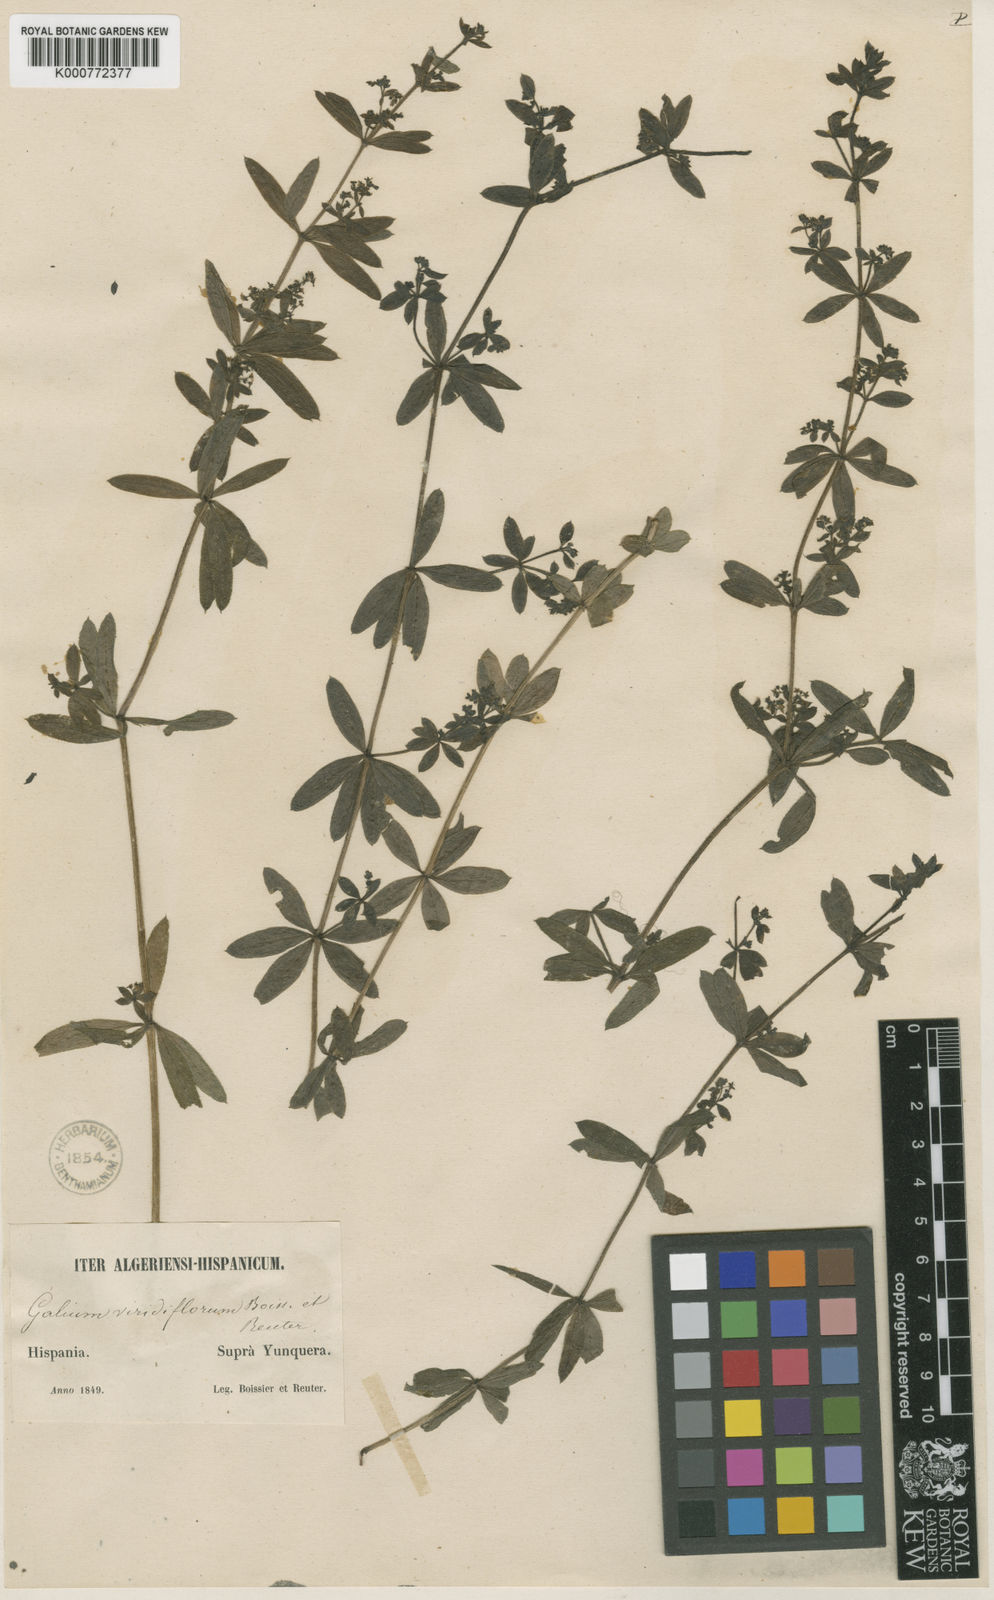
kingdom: Plantae
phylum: Tracheophyta
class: Magnoliopsida
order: Gentianales
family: Rubiaceae
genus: Galium
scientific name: Galium viridiflorum
